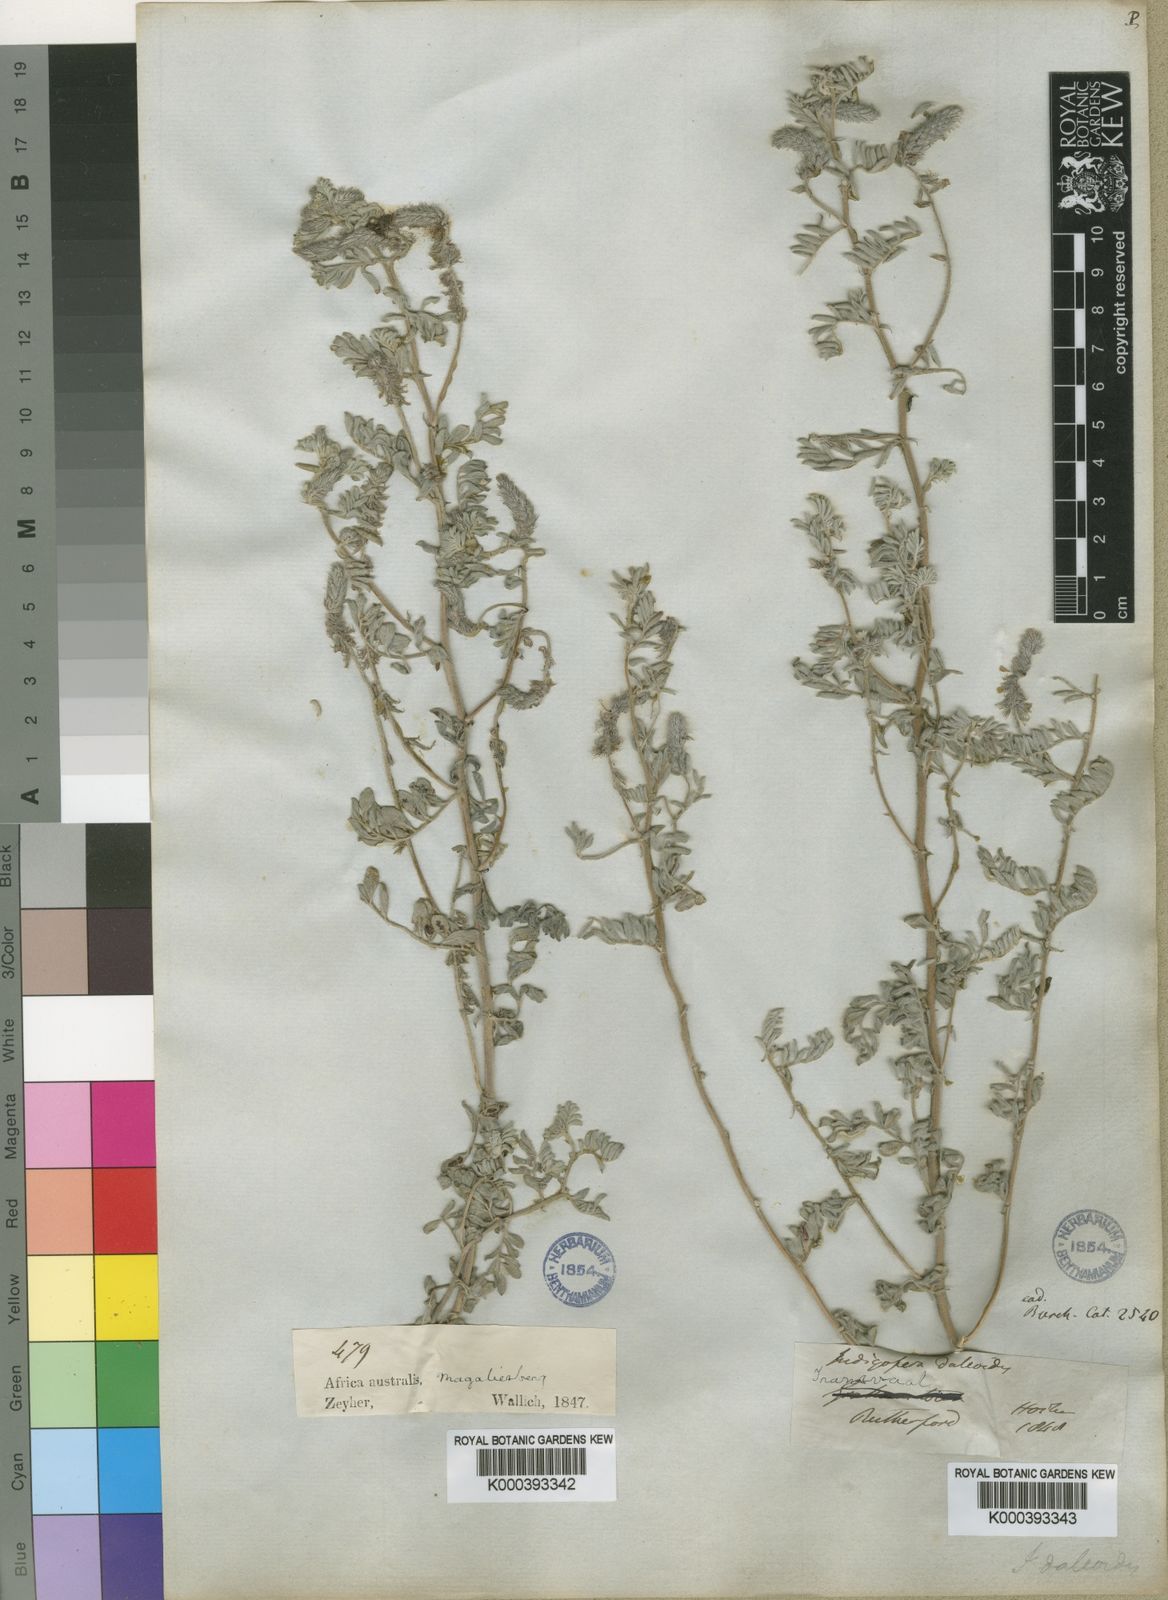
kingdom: Plantae
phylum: Tracheophyta
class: Magnoliopsida
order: Fabales
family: Fabaceae
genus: Indigofera
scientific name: Indigofera daleoides
